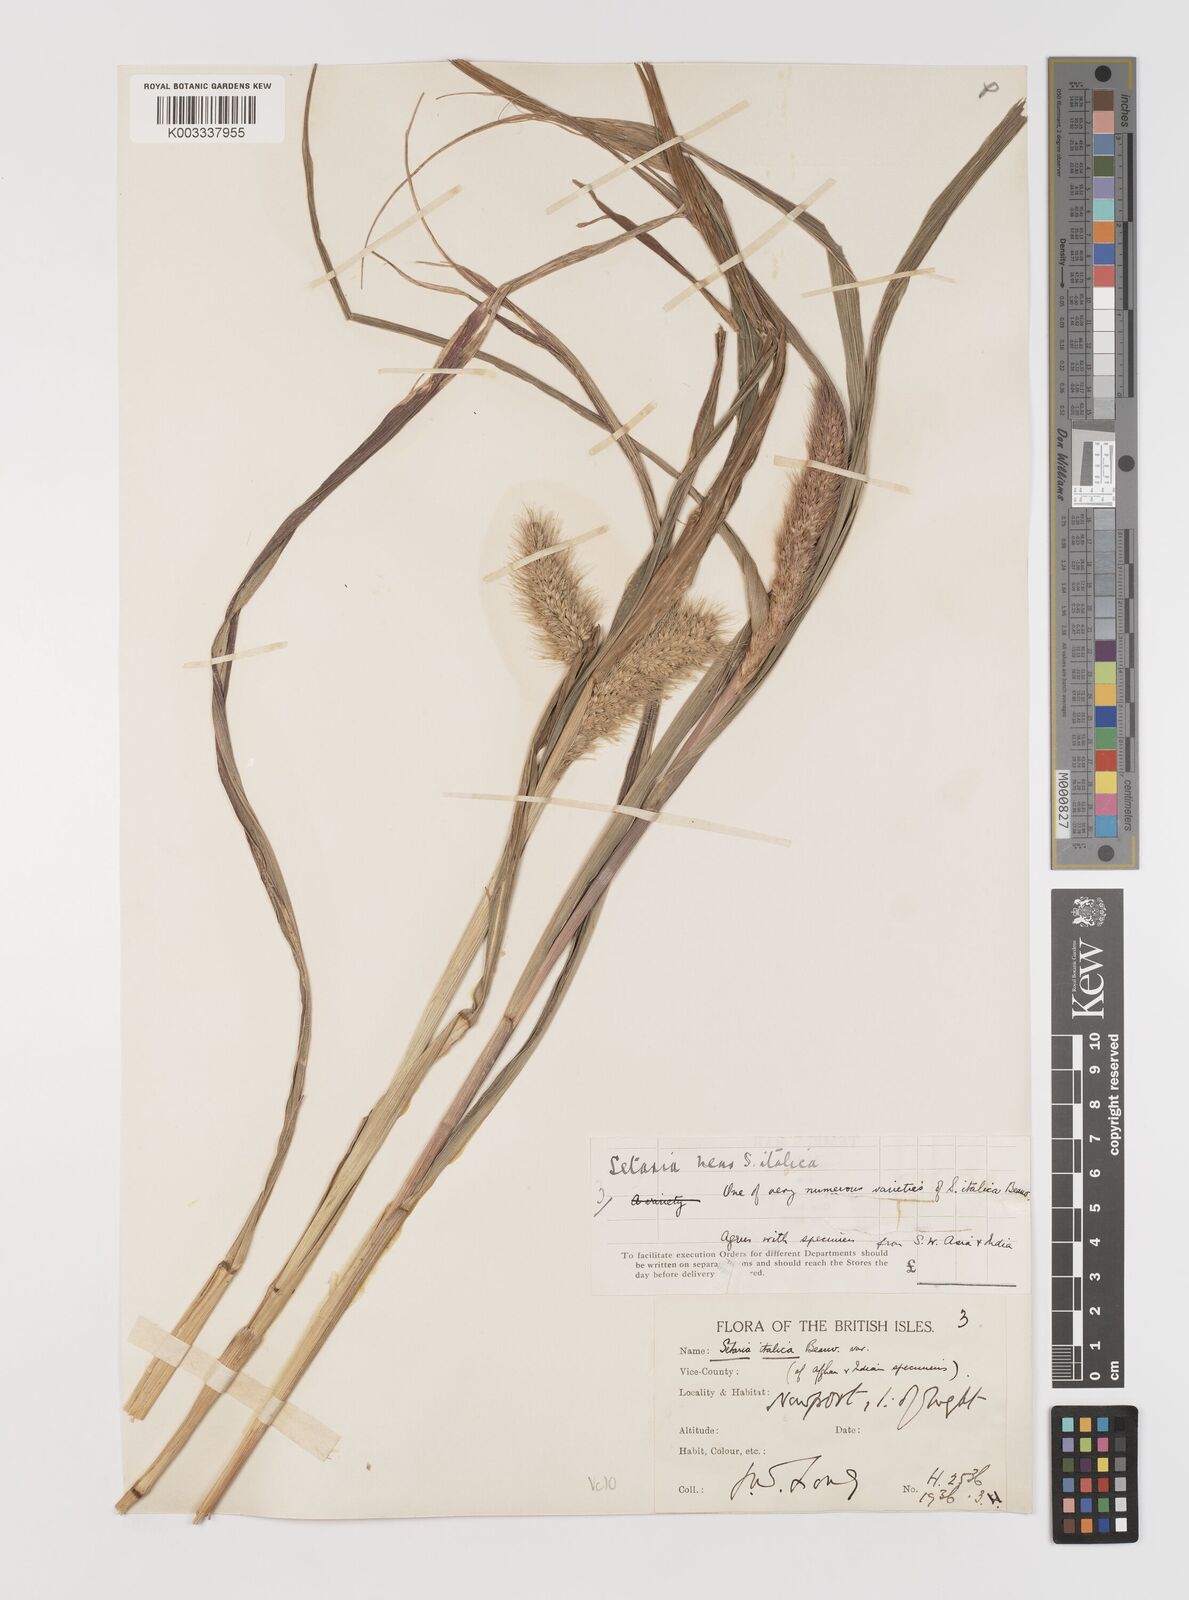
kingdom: Plantae
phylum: Tracheophyta
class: Liliopsida
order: Poales
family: Poaceae
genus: Setaria
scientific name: Setaria italica
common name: Foxtail bristle-grass
